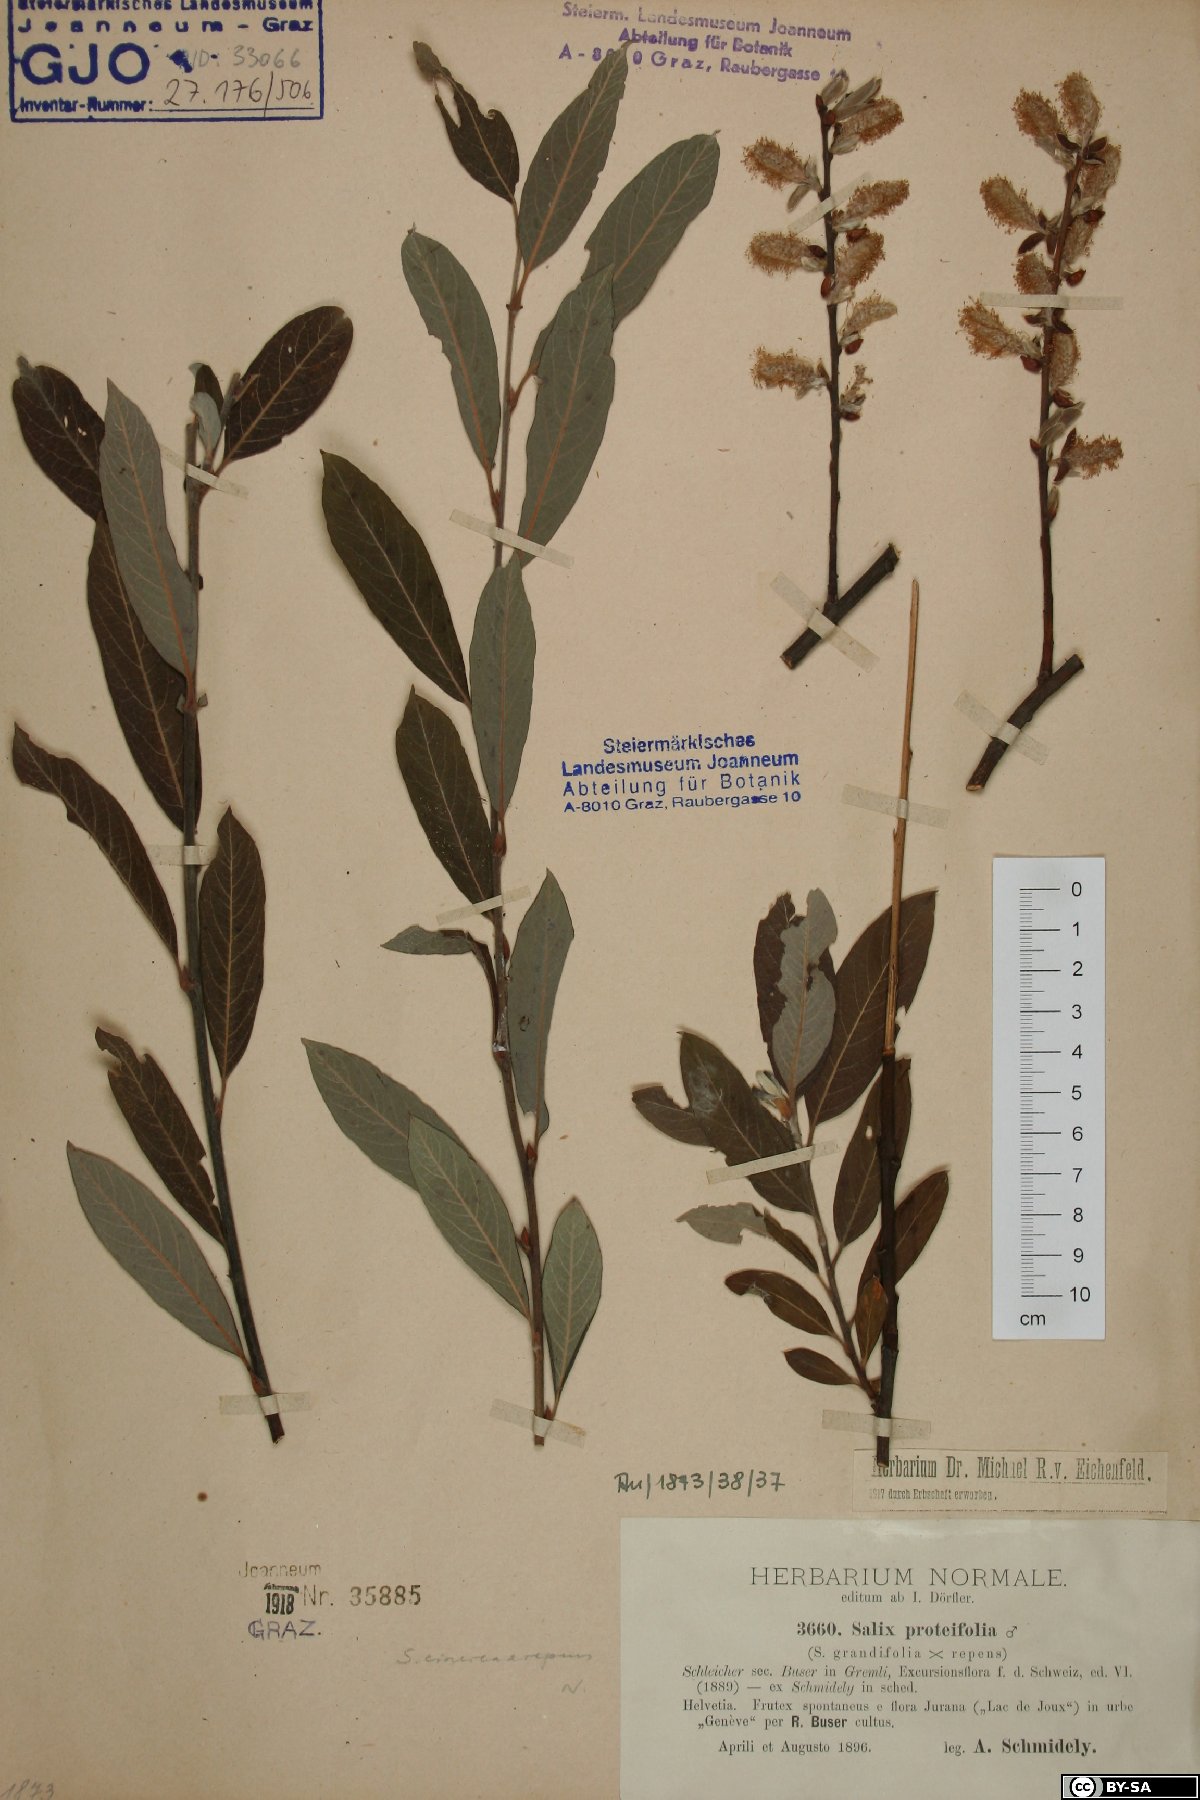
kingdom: Plantae
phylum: Tracheophyta
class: Magnoliopsida
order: Malpighiales
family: Salicaceae
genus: Salix
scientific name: Salix myrsinifolia
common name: Dark-leaved willow
